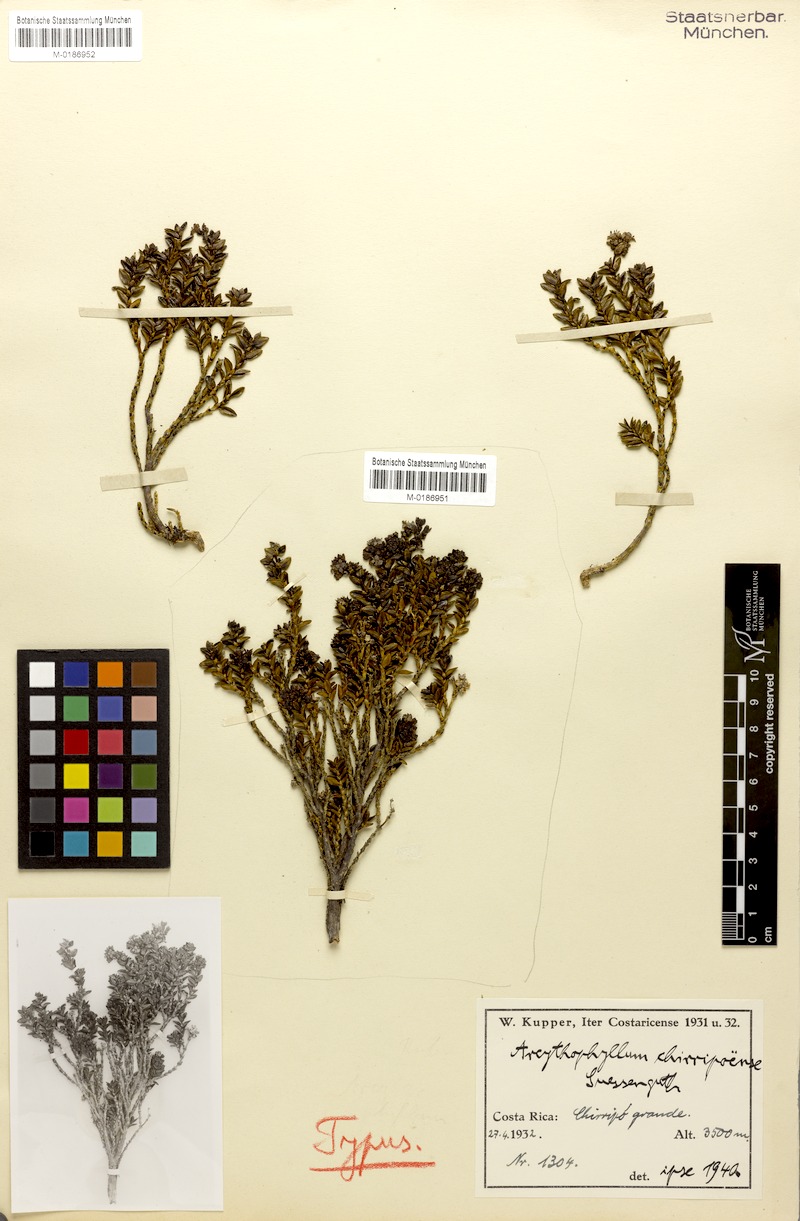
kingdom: Plantae
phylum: Tracheophyta
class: Magnoliopsida
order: Gentianales
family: Rubiaceae
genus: Arcytophyllum
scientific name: Arcytophyllum lavarum
